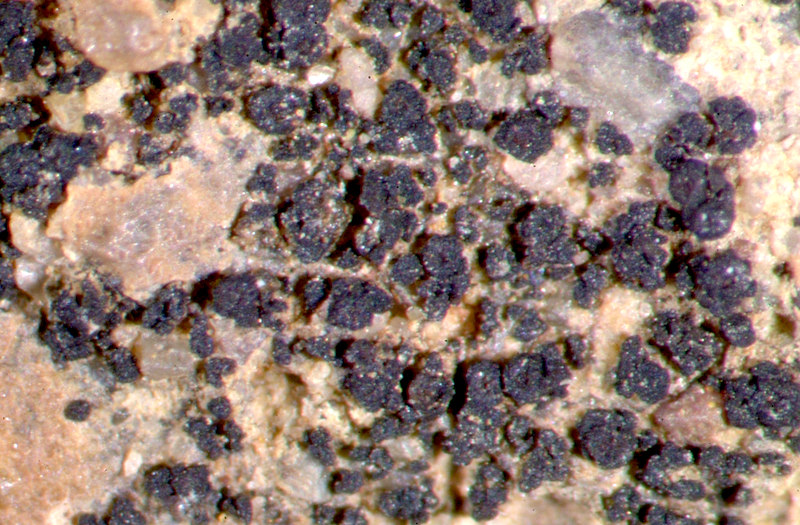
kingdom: Fungi
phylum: Ascomycota
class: Lichinomycetes
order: Lichinales
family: Lichinaceae
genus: Peccania
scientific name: Peccania
